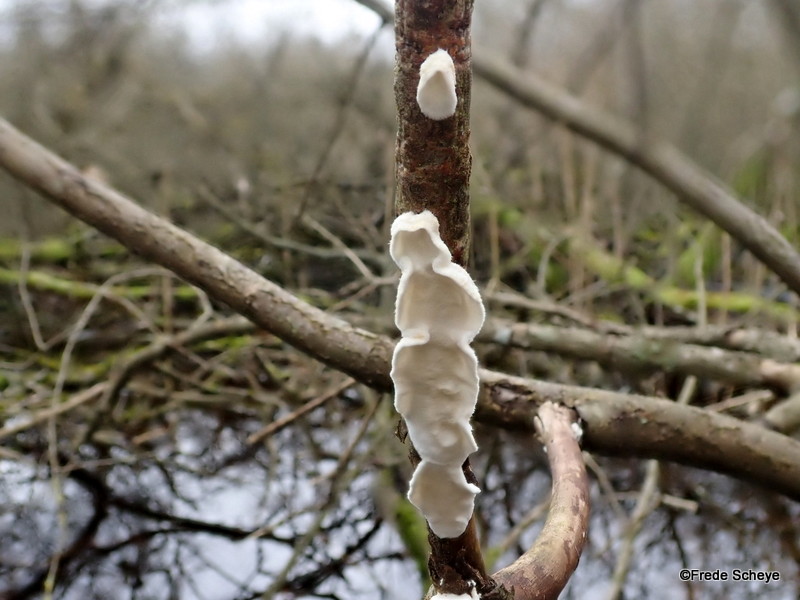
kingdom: Fungi
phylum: Basidiomycota
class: Agaricomycetes
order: Polyporales
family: Irpicaceae
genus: Byssomerulius
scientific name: Byssomerulius corium
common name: læder-åresvamp
